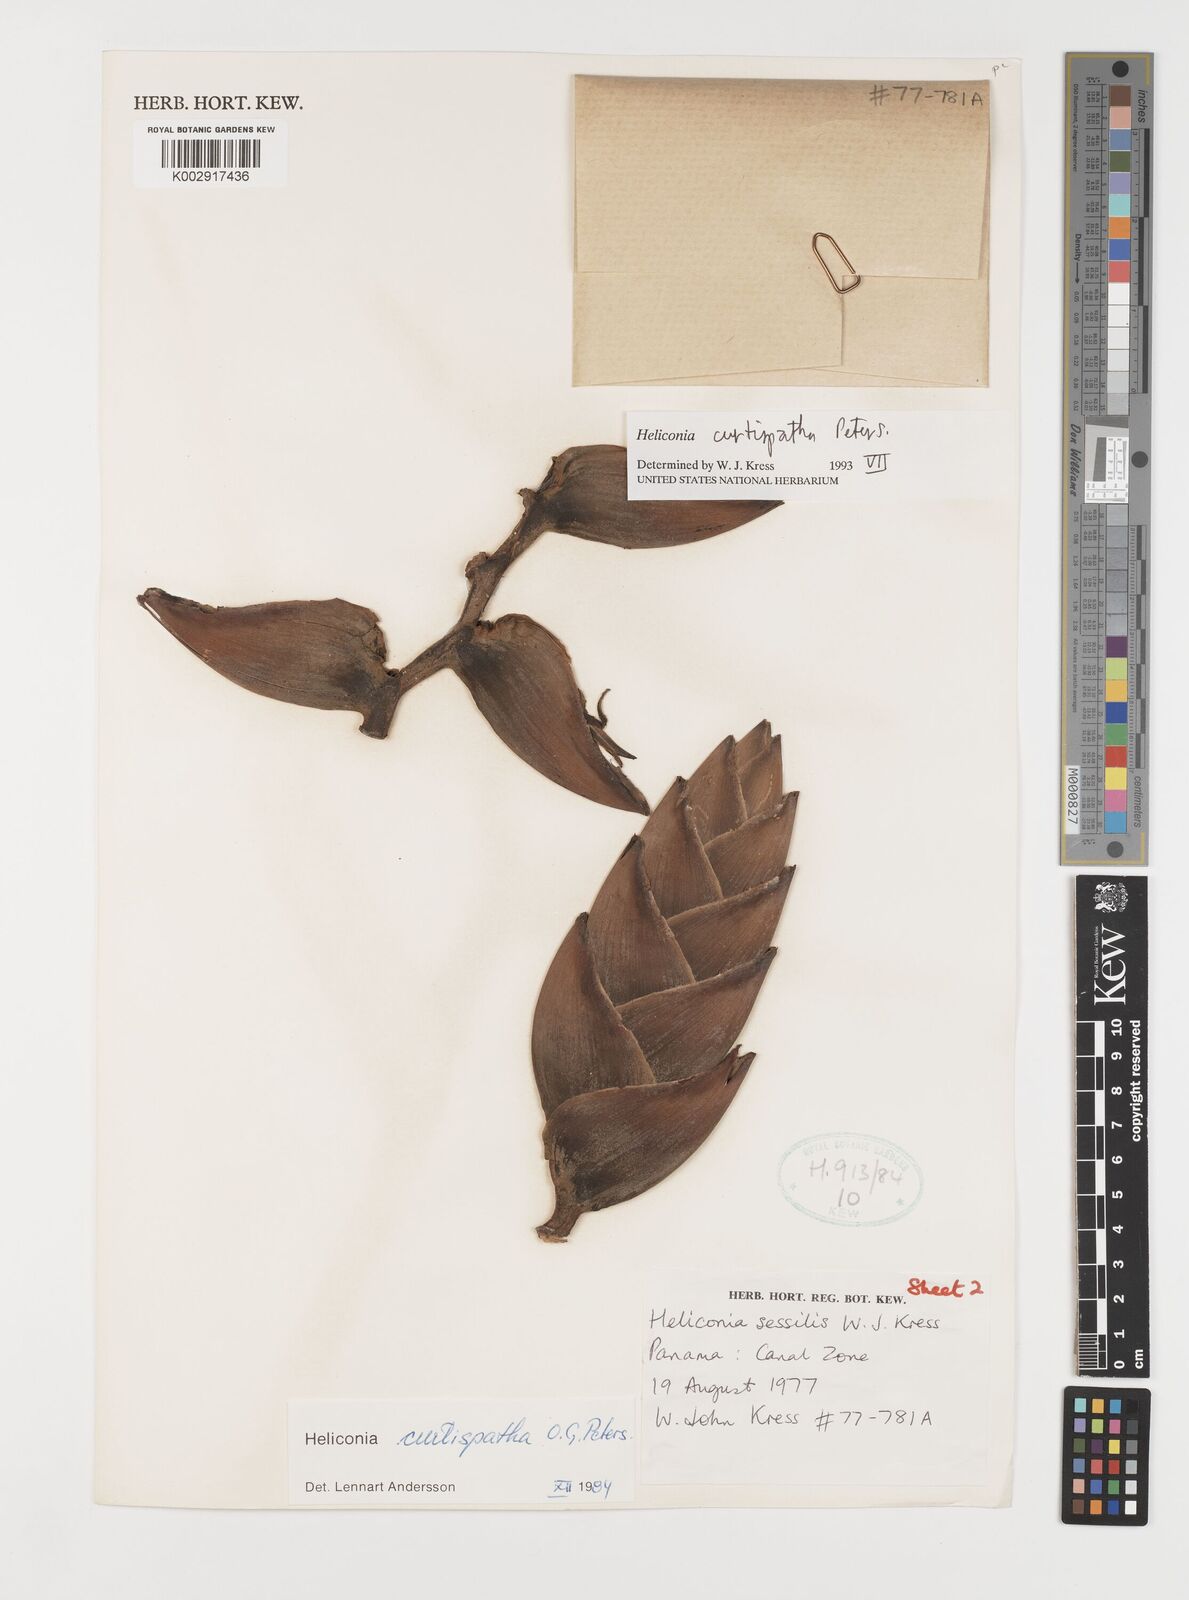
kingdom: Plantae
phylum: Tracheophyta
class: Liliopsida
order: Zingiberales
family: Heliconiaceae
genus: Heliconia
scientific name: Heliconia curtispatha
